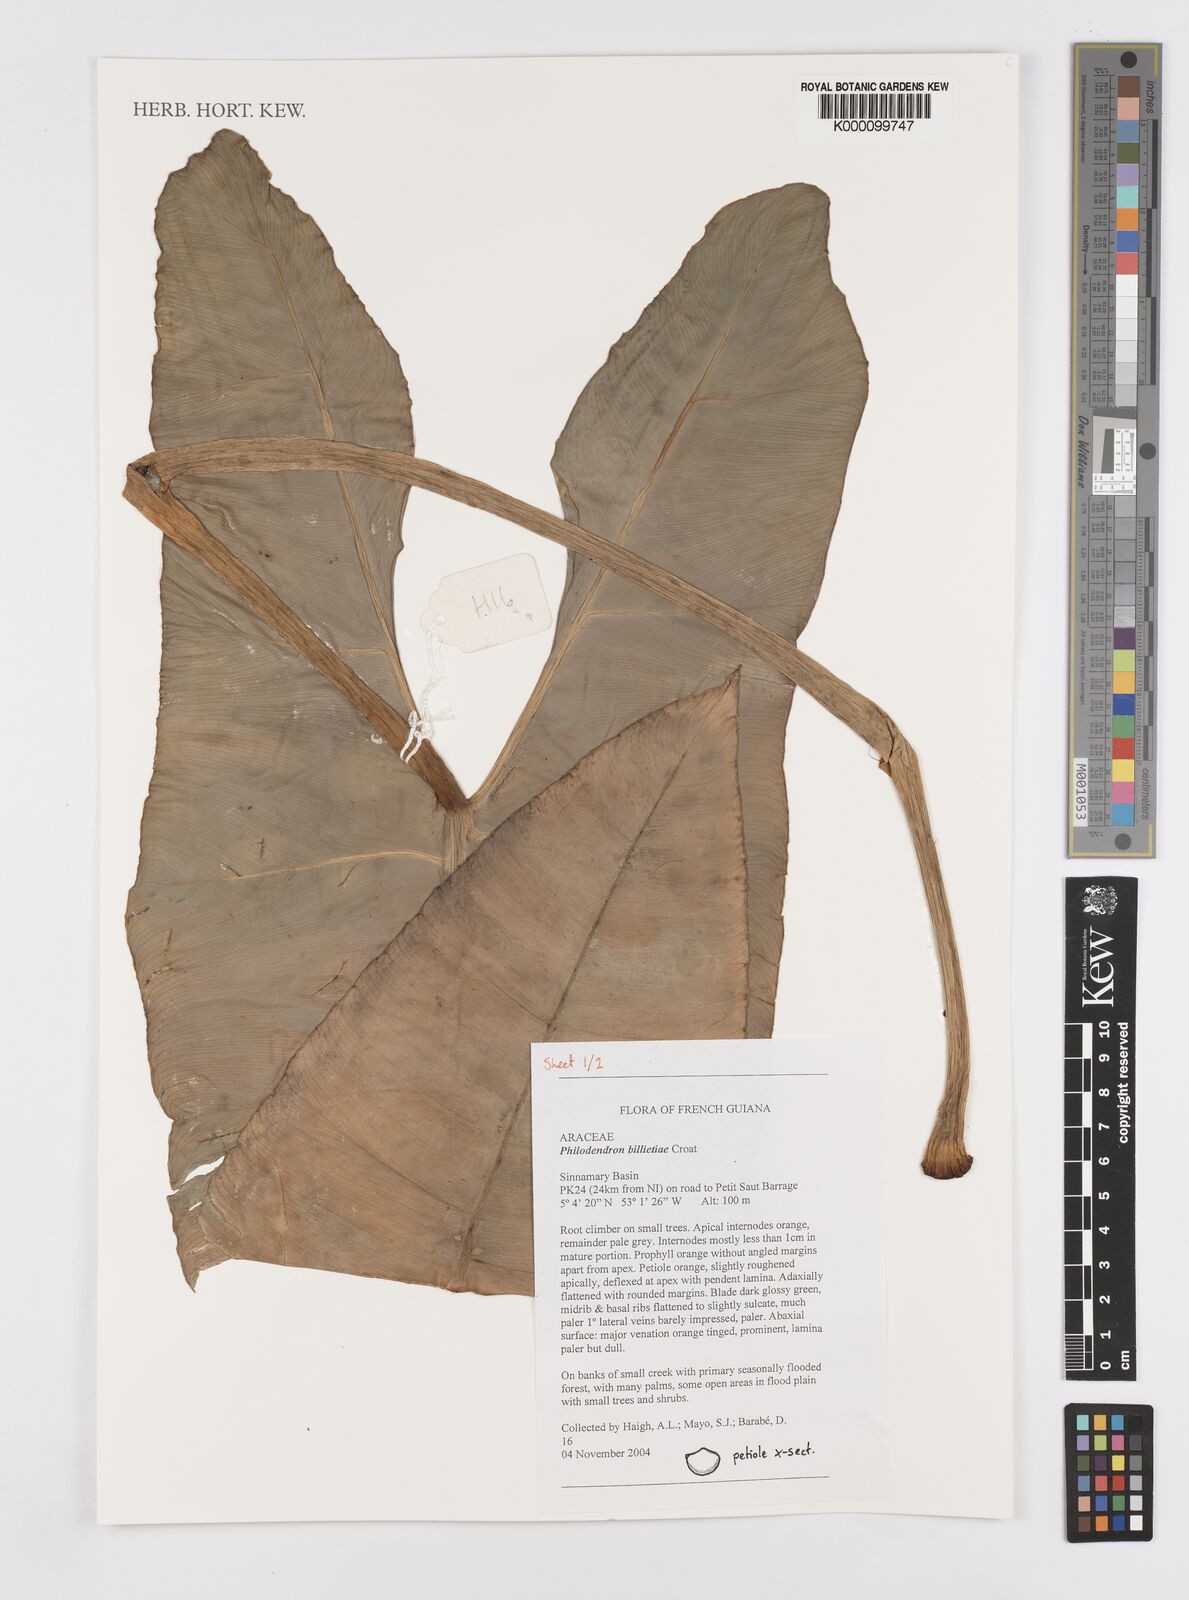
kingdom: Plantae
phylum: Tracheophyta
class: Liliopsida
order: Alismatales
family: Araceae
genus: Philodendron
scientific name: Philodendron billietiae
